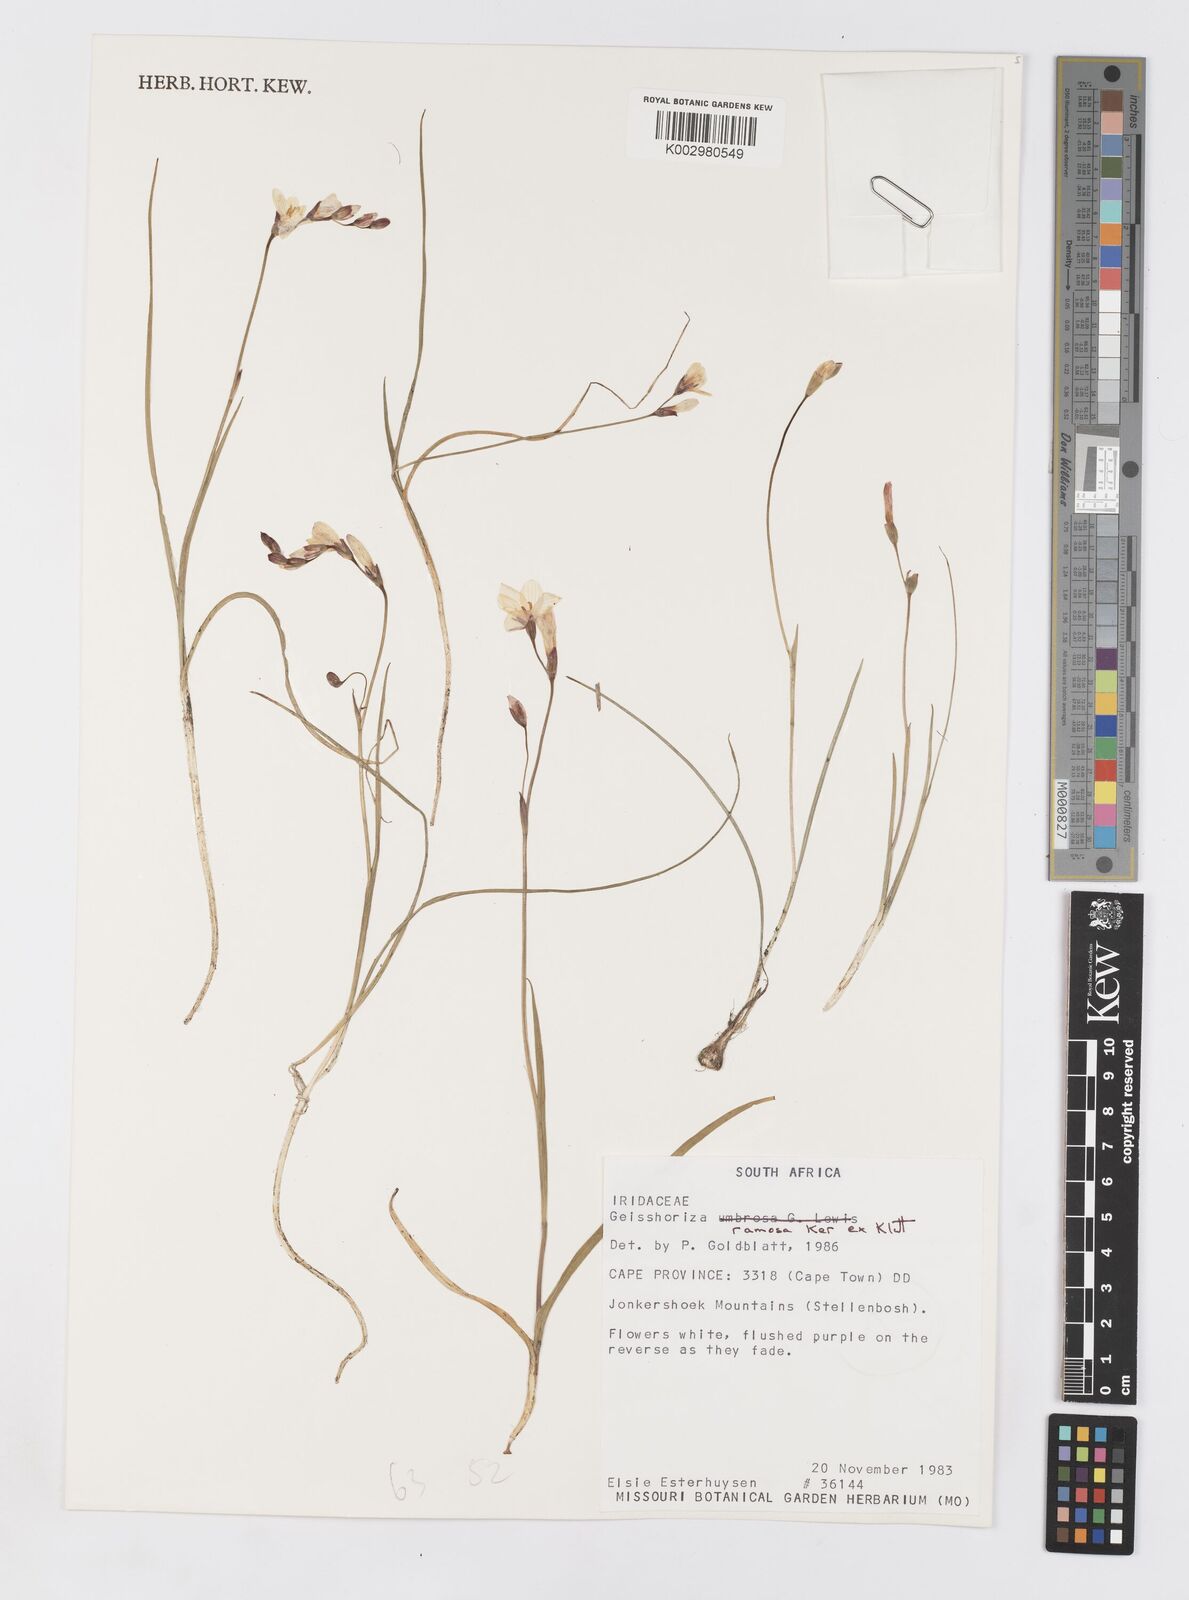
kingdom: Plantae
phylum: Tracheophyta
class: Liliopsida
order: Asparagales
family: Iridaceae
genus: Geissorhiza
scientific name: Geissorhiza ramosa
